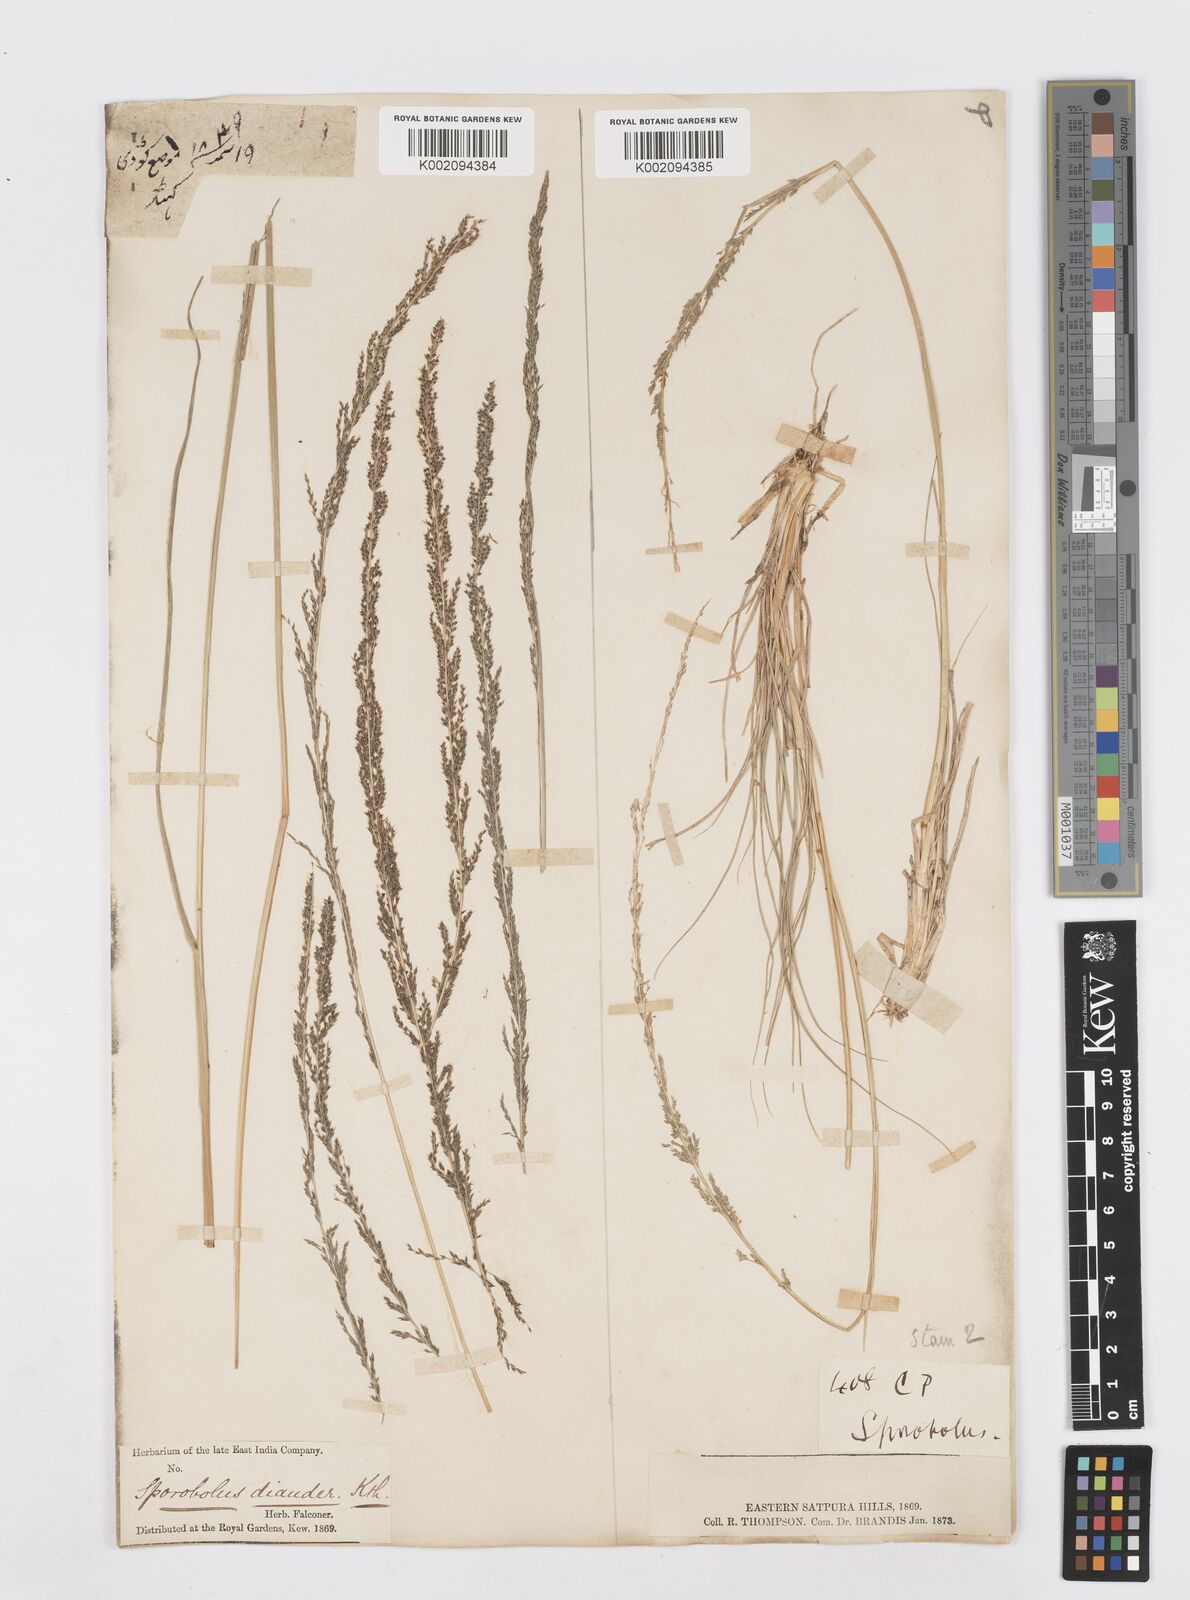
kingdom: Plantae
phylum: Tracheophyta
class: Liliopsida
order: Poales
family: Poaceae
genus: Sporobolus
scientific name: Sporobolus fertilis
